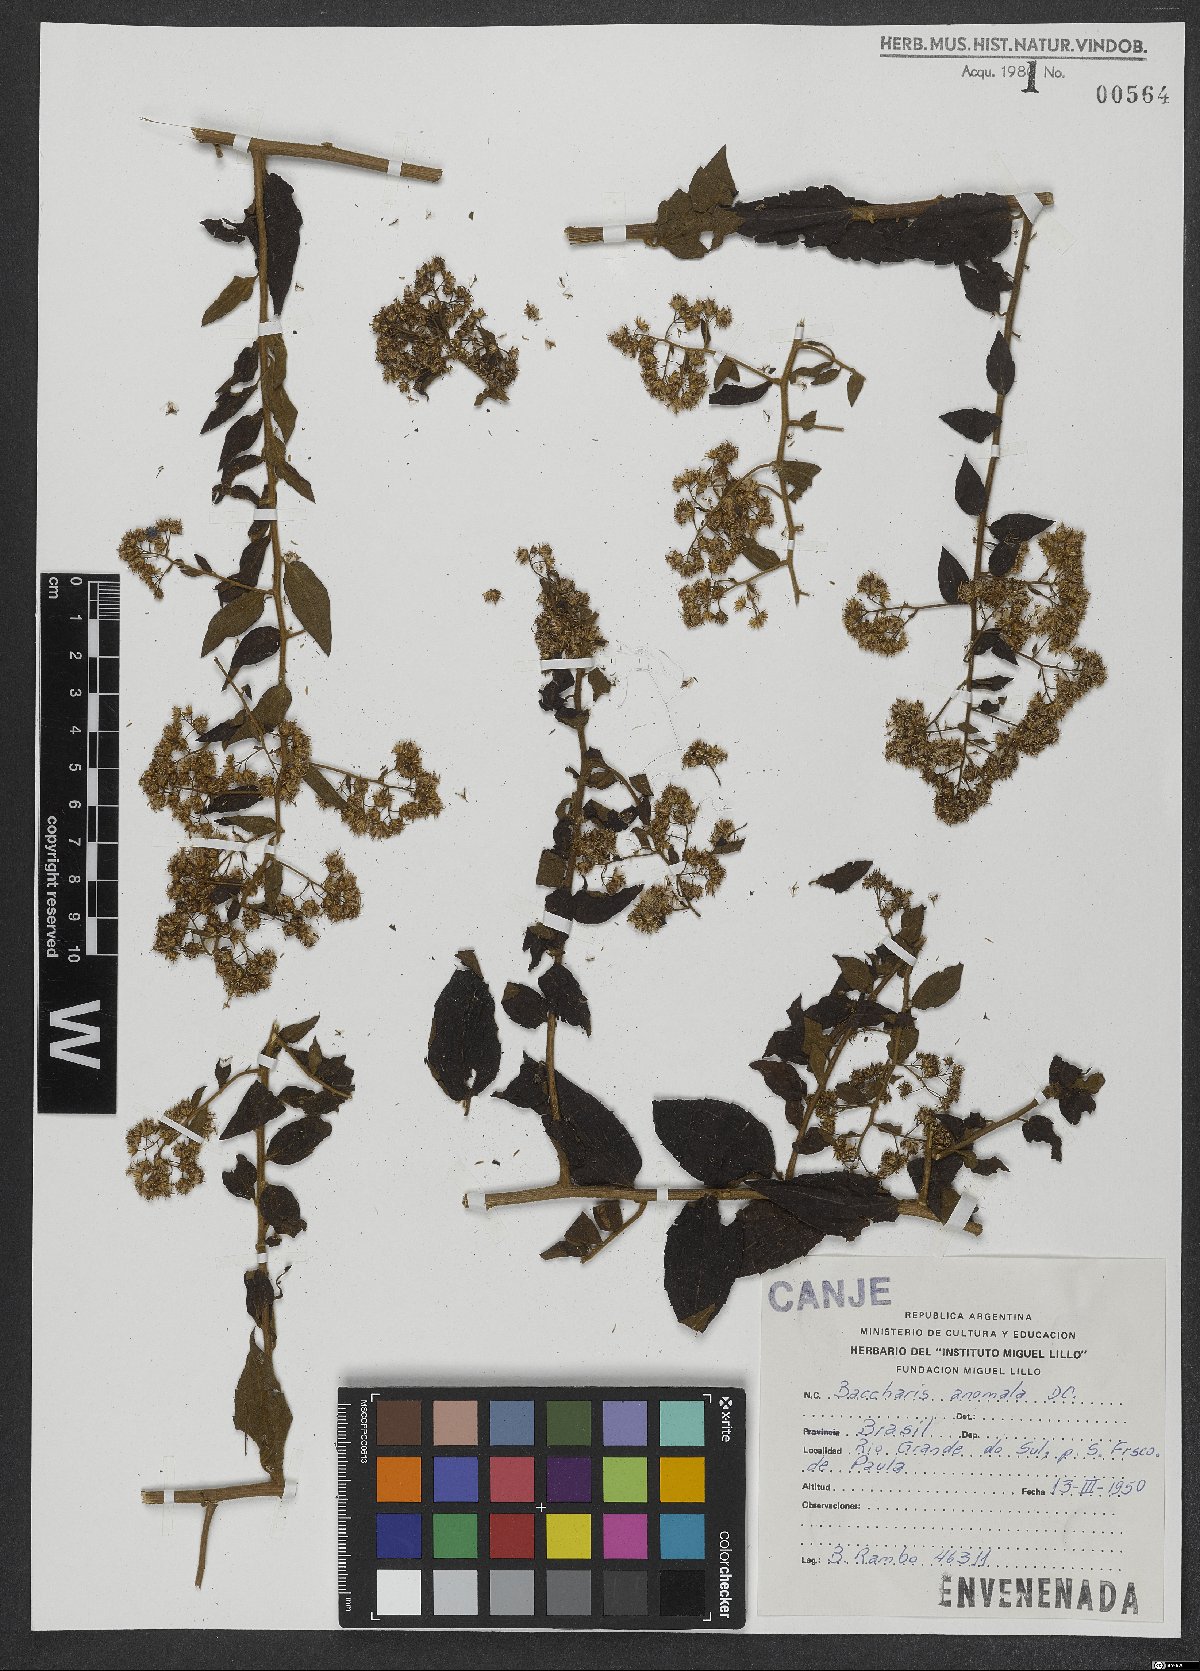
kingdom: Plantae
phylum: Tracheophyta
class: Magnoliopsida
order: Asterales
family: Asteraceae
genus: Baccharis
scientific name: Baccharis anomala
